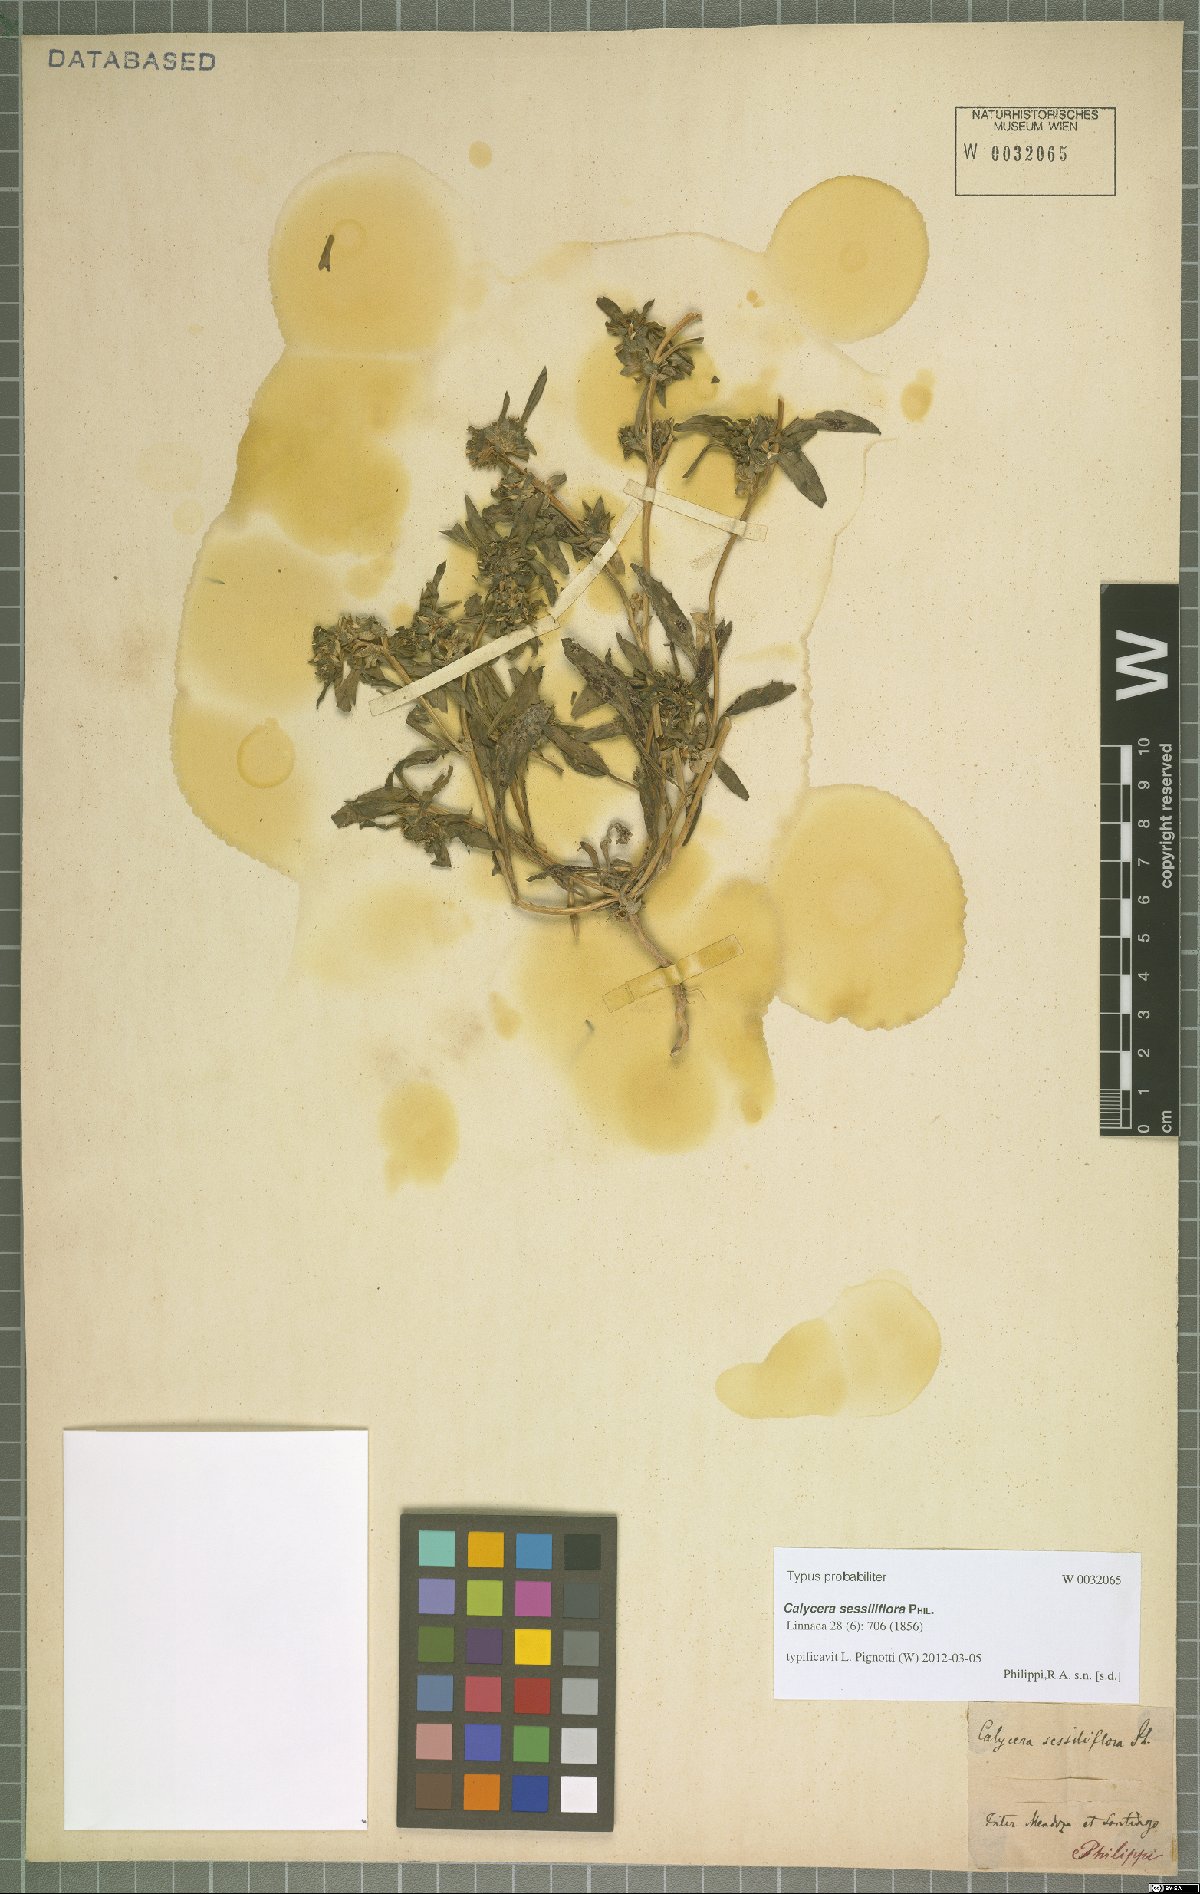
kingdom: Plantae
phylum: Tracheophyta
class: Magnoliopsida
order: Asterales
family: Calyceraceae
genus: Leucocera
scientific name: Leucocera sessiliflora
